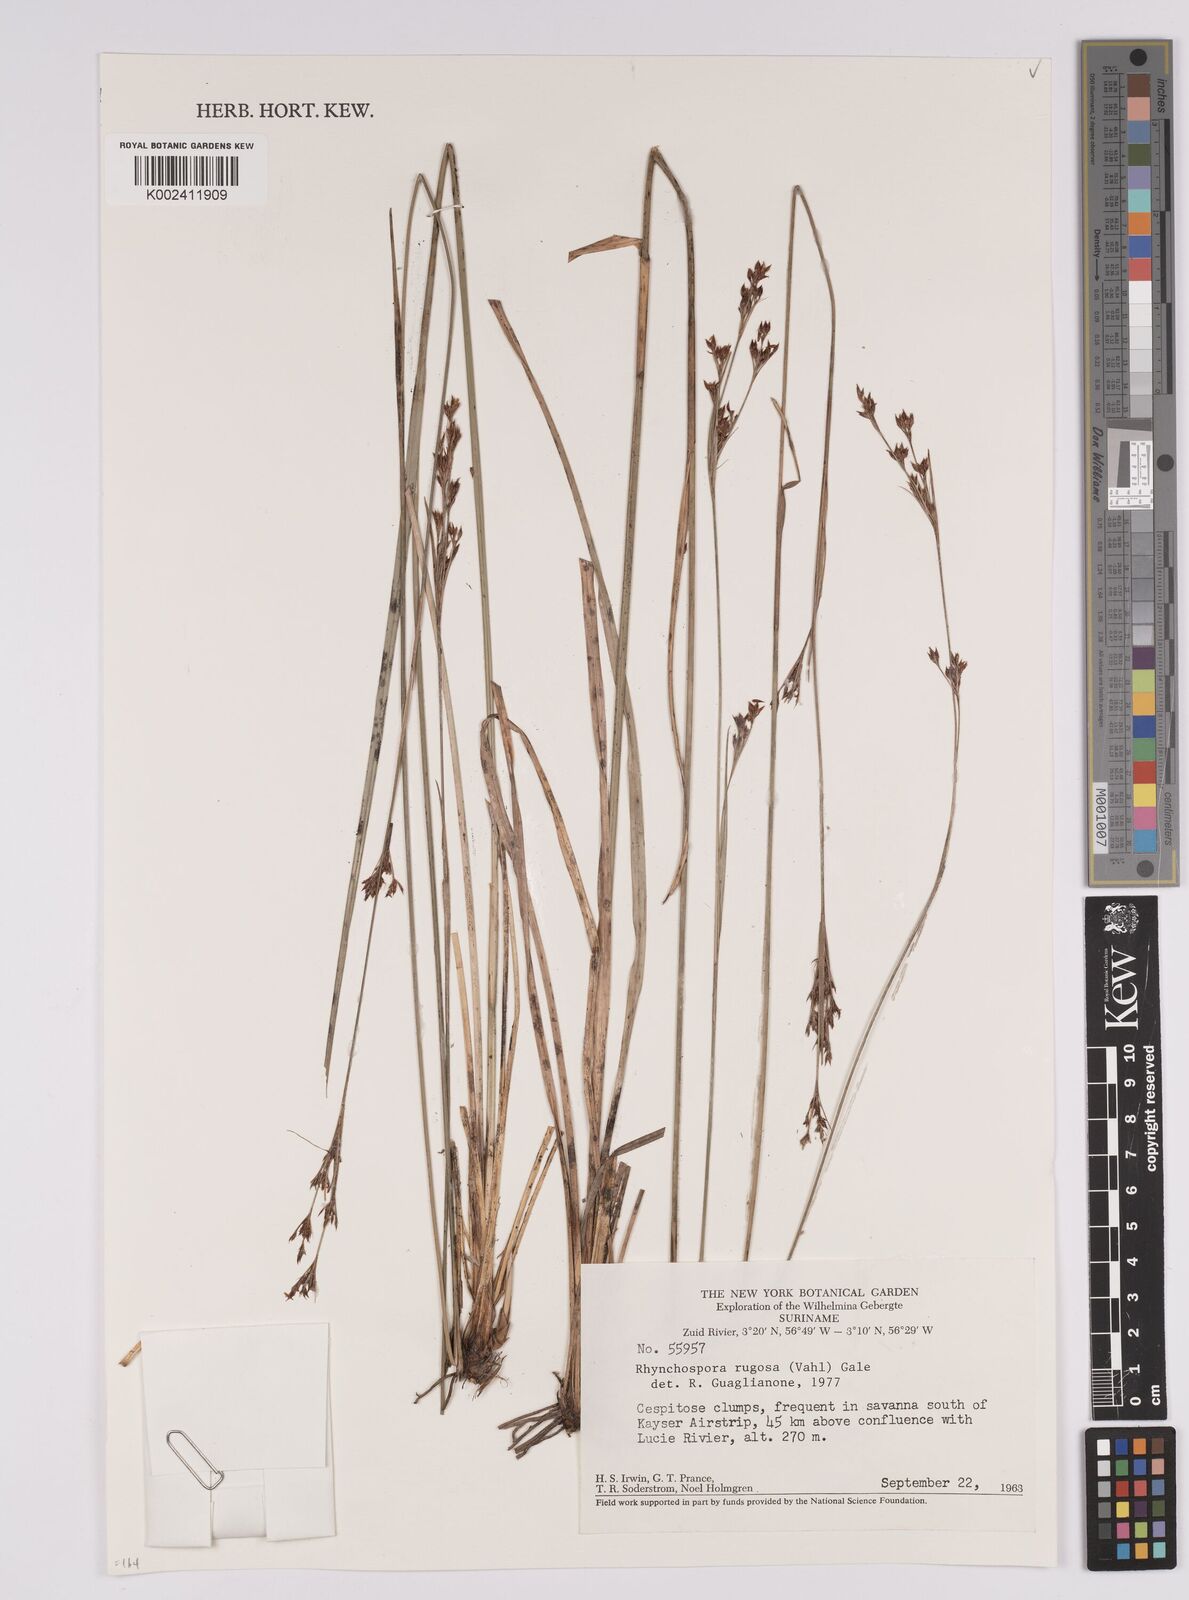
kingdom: Plantae
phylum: Tracheophyta
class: Liliopsida
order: Poales
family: Cyperaceae
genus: Rhynchospora
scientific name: Rhynchospora rugosa
